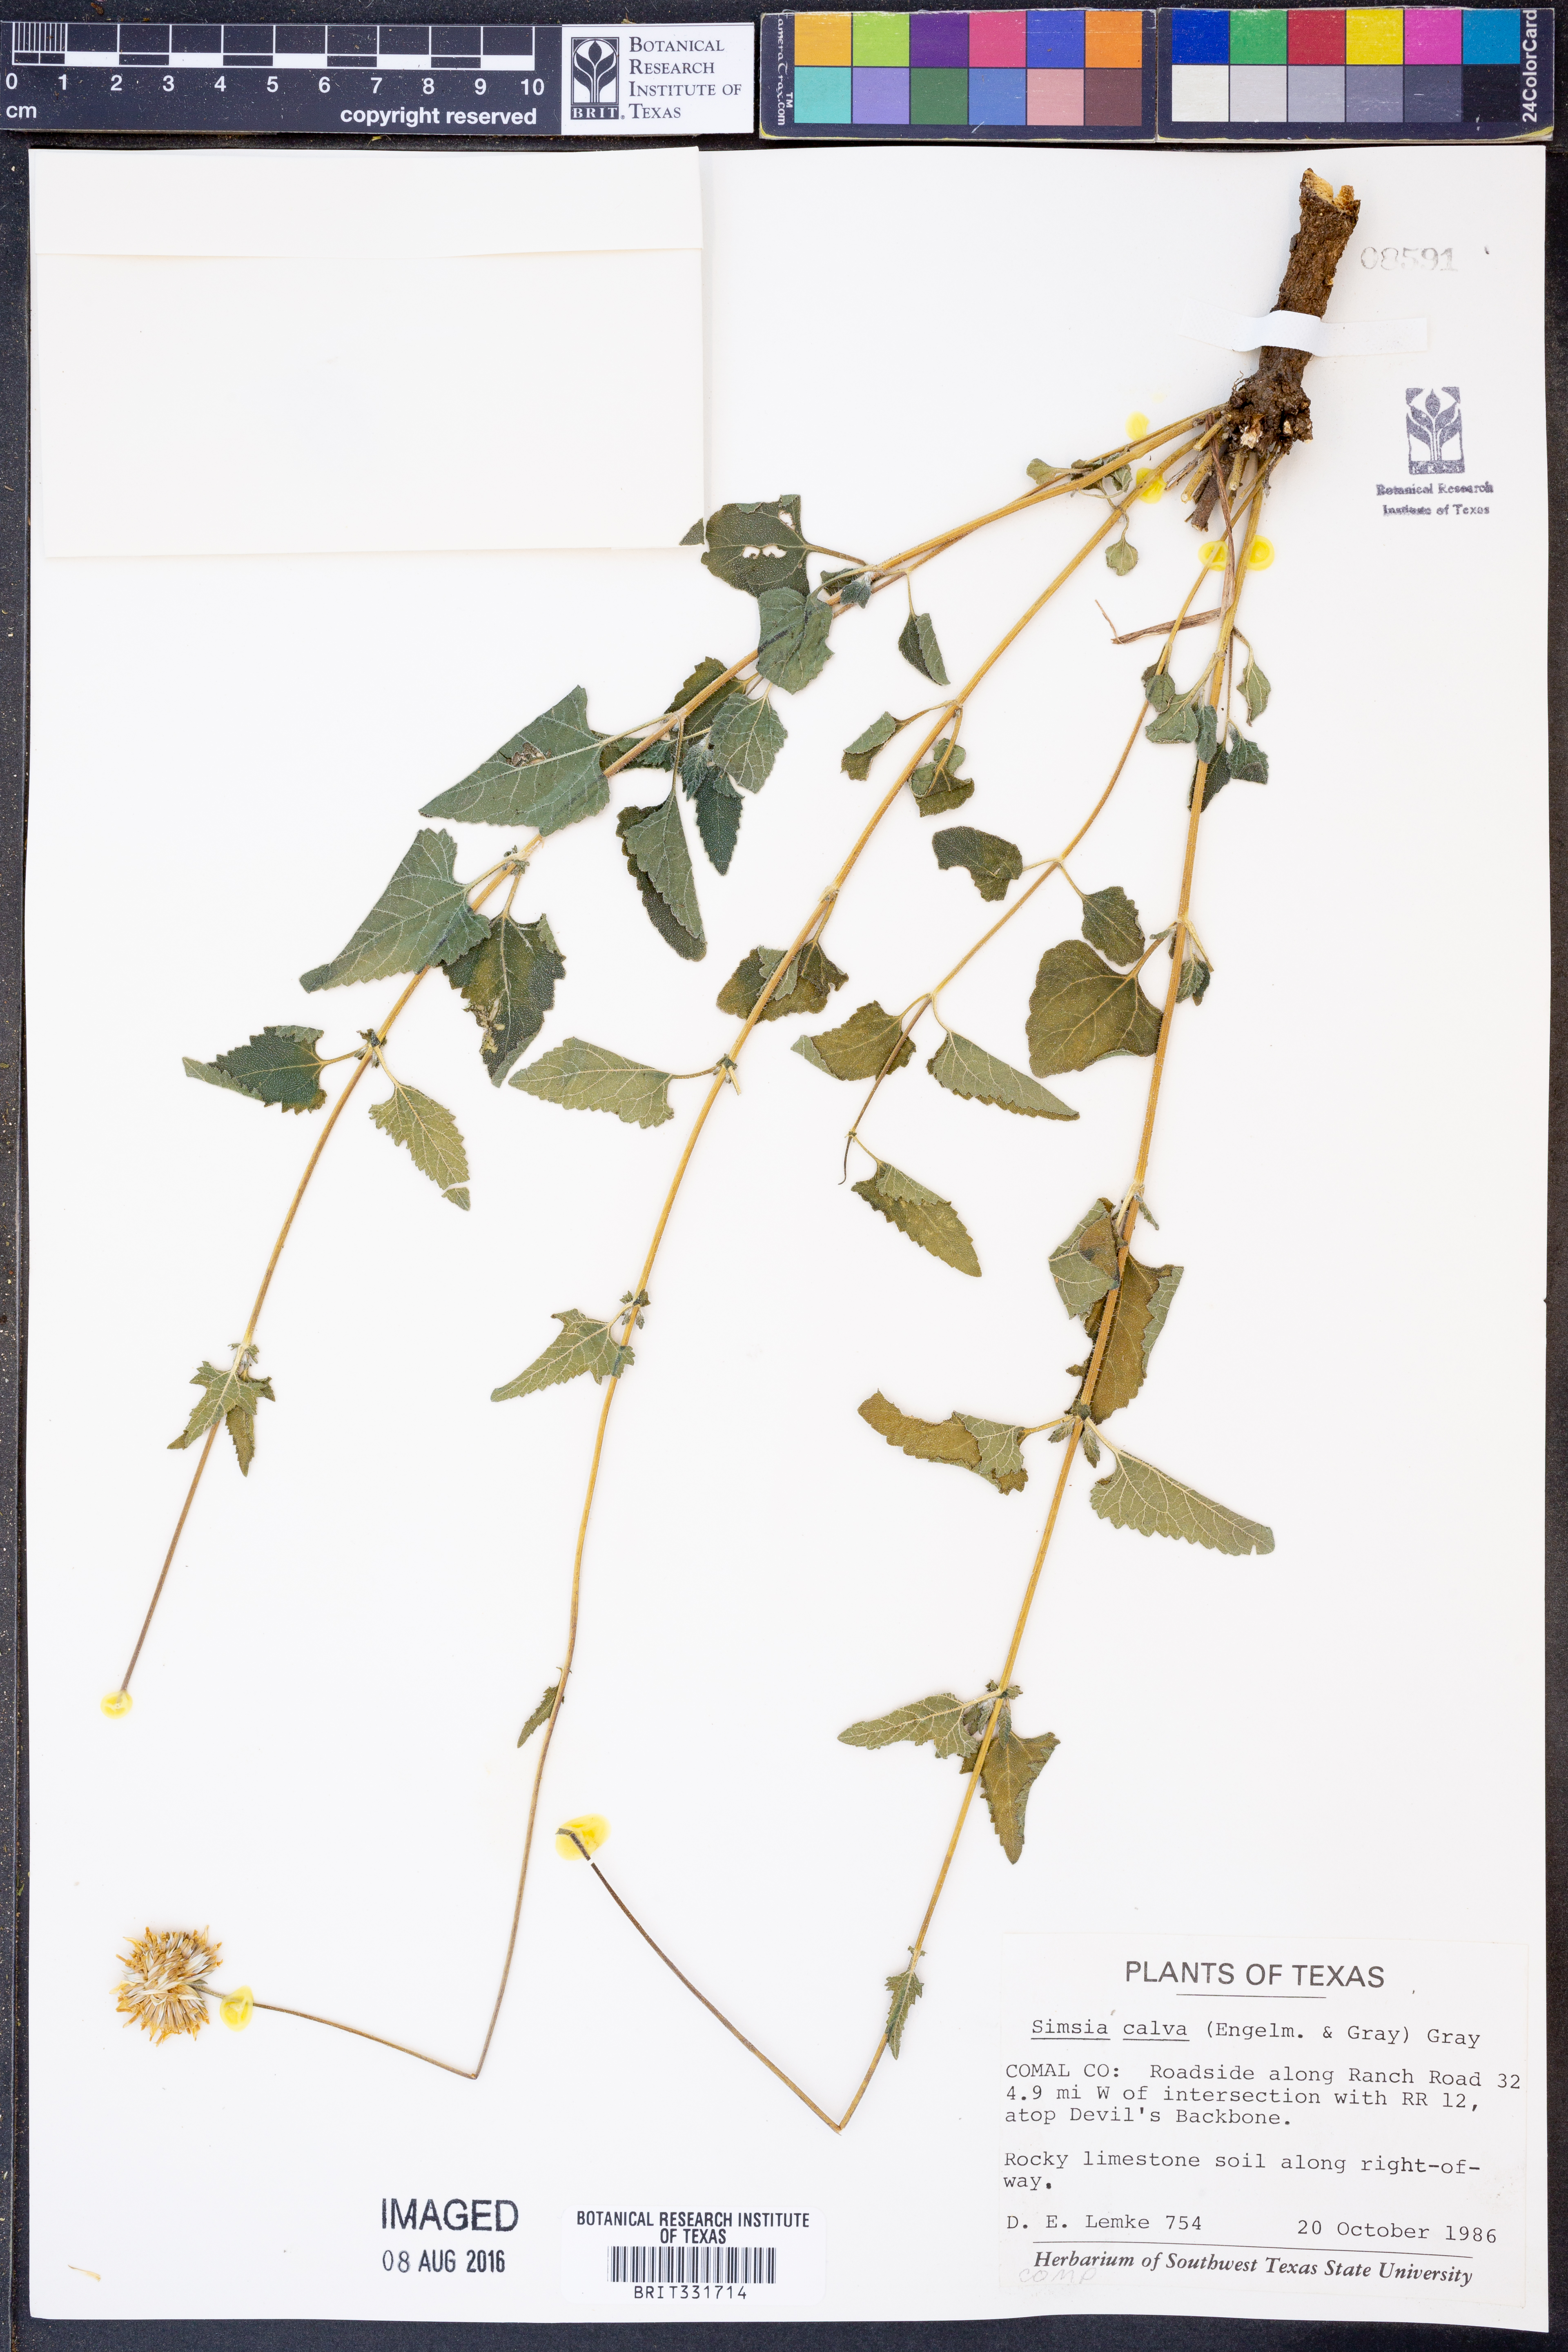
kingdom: Plantae
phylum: Tracheophyta
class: Magnoliopsida
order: Asterales
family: Asteraceae
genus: Simsia
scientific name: Simsia calva
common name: Awnless bush-sunflower
